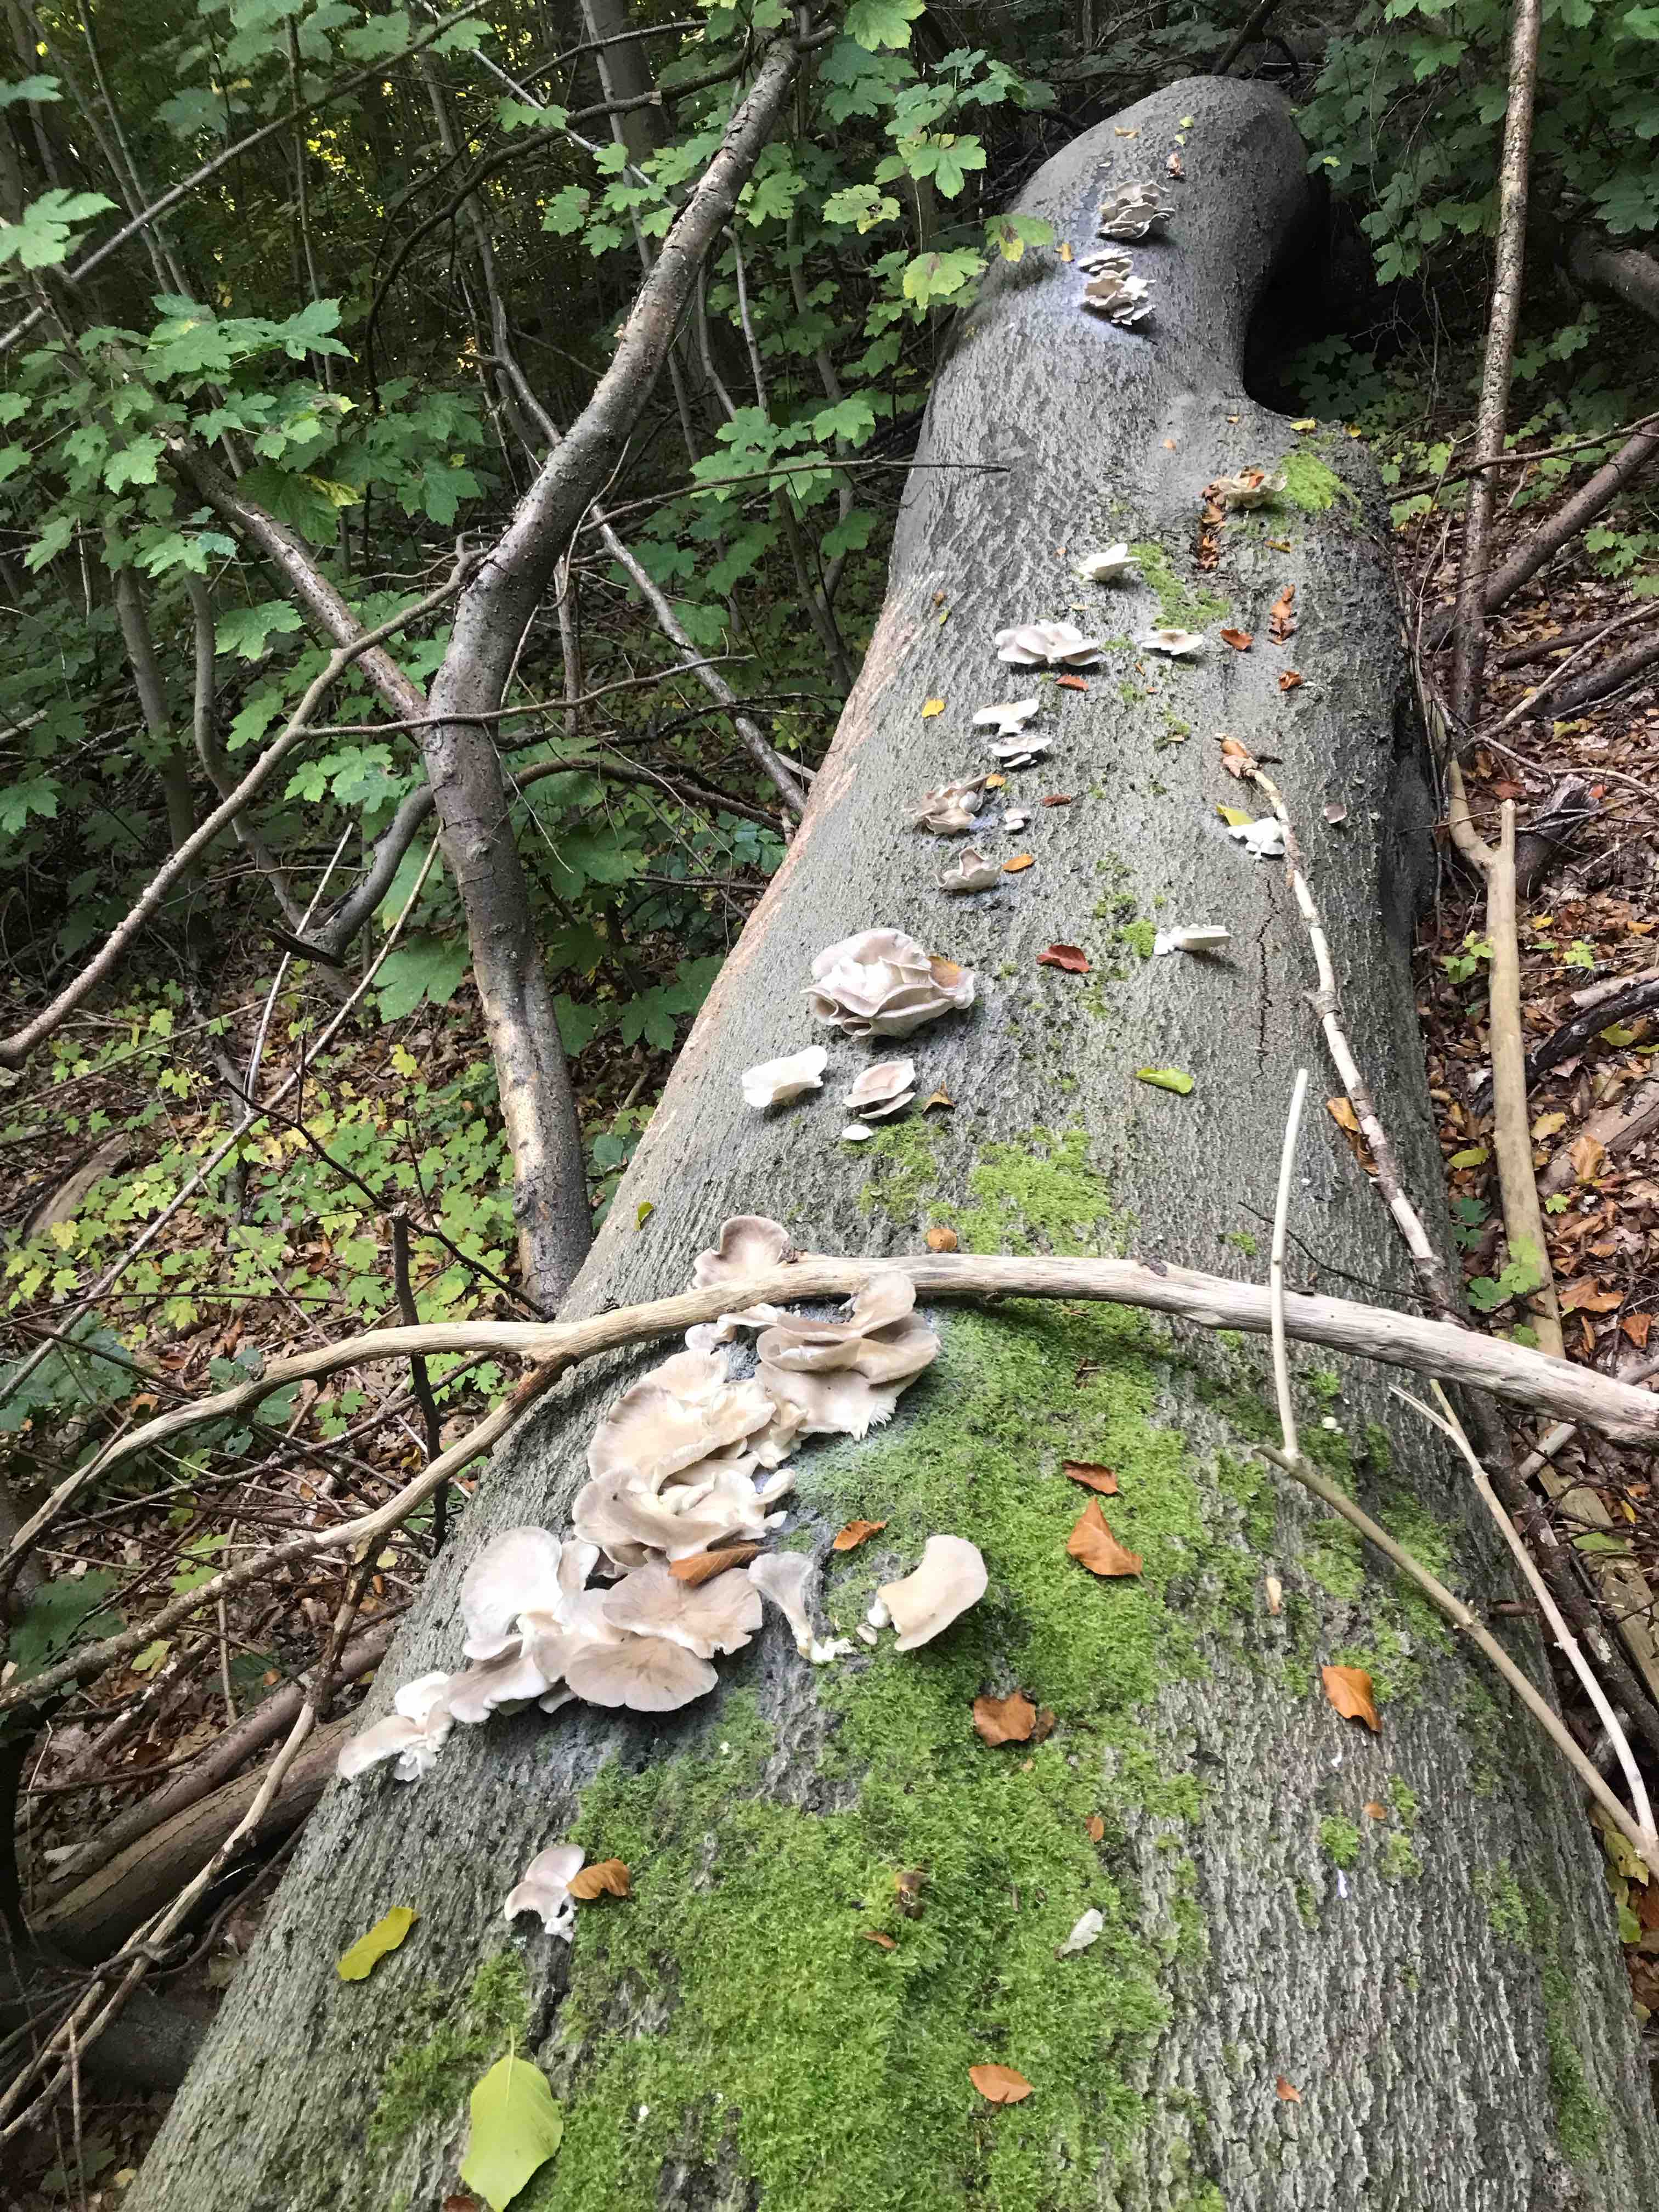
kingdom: Fungi
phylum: Basidiomycota
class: Agaricomycetes
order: Agaricales
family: Pleurotaceae
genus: Pleurotus
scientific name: Pleurotus pulmonarius
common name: sommer-østershat
